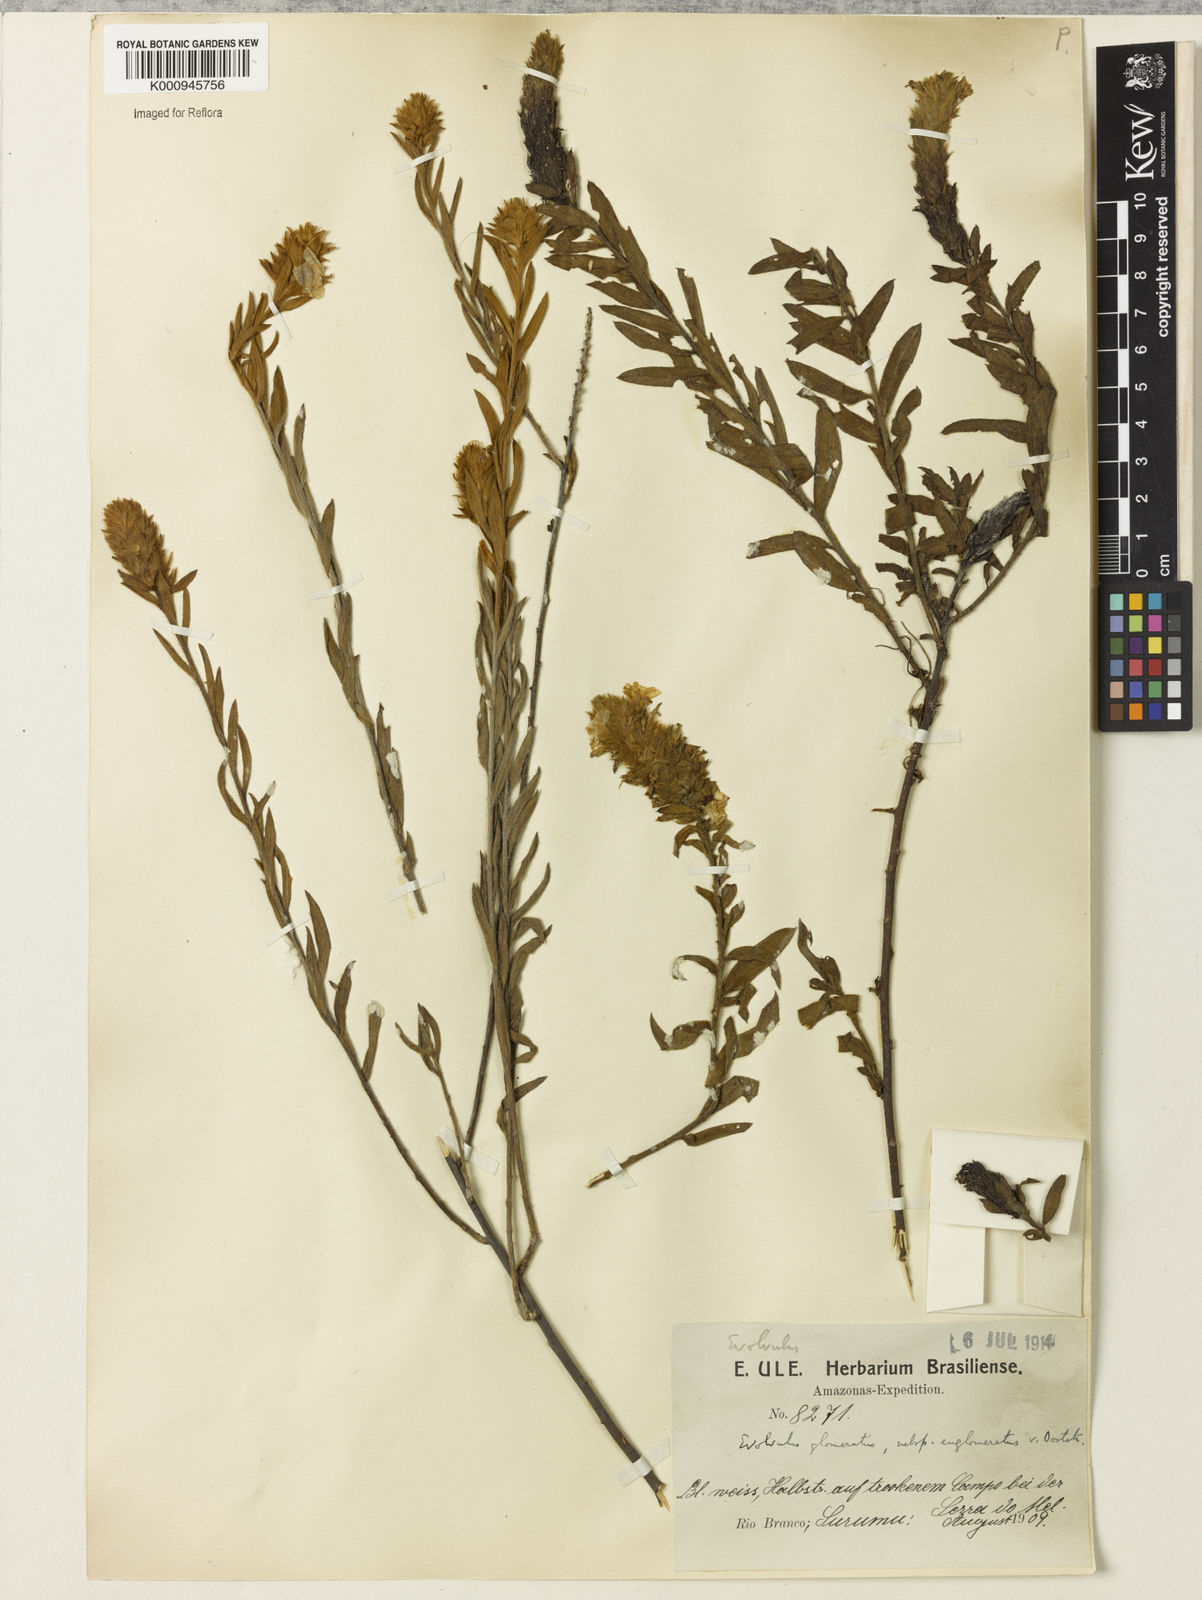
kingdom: Plantae
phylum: Tracheophyta
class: Magnoliopsida
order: Solanales
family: Convolvulaceae
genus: Evolvulus
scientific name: Evolvulus glomeratus
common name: Brazilian dwarf morning-glory
